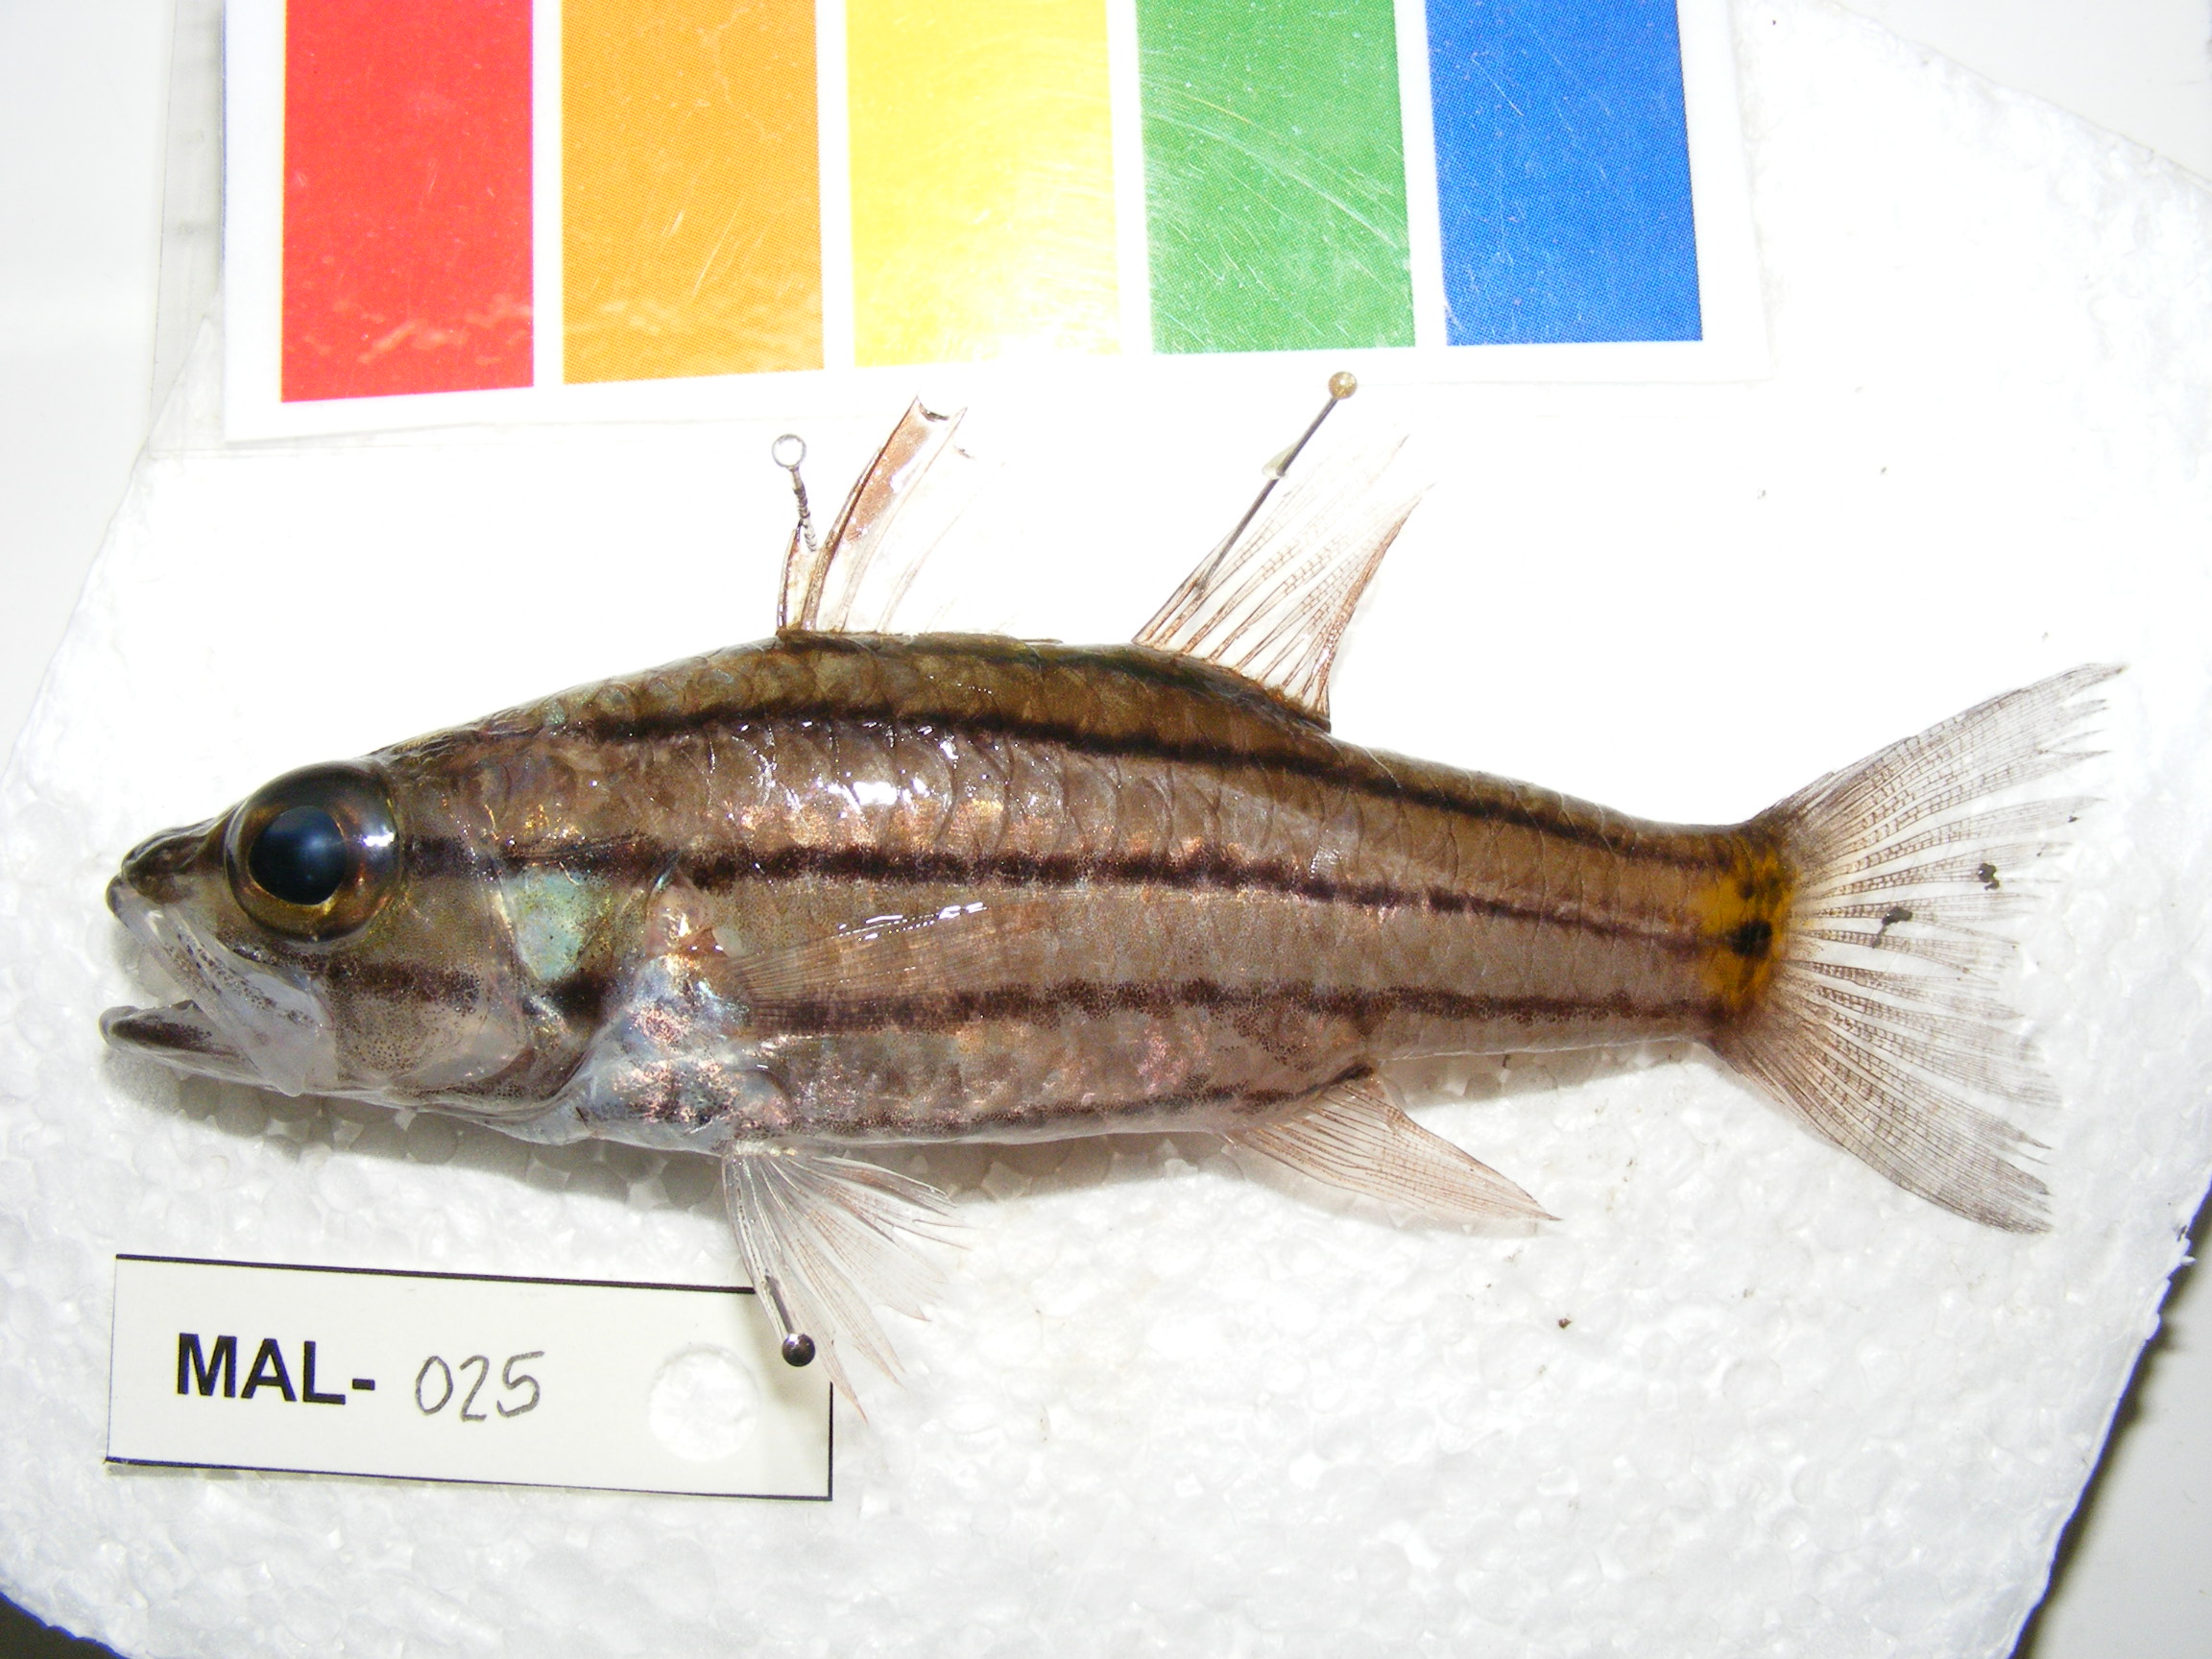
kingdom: Animalia
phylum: Chordata
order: Perciformes
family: Apogonidae
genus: Cheilodipterus
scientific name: Cheilodipterus quinquelineatus
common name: Five-lined cardinalfish
